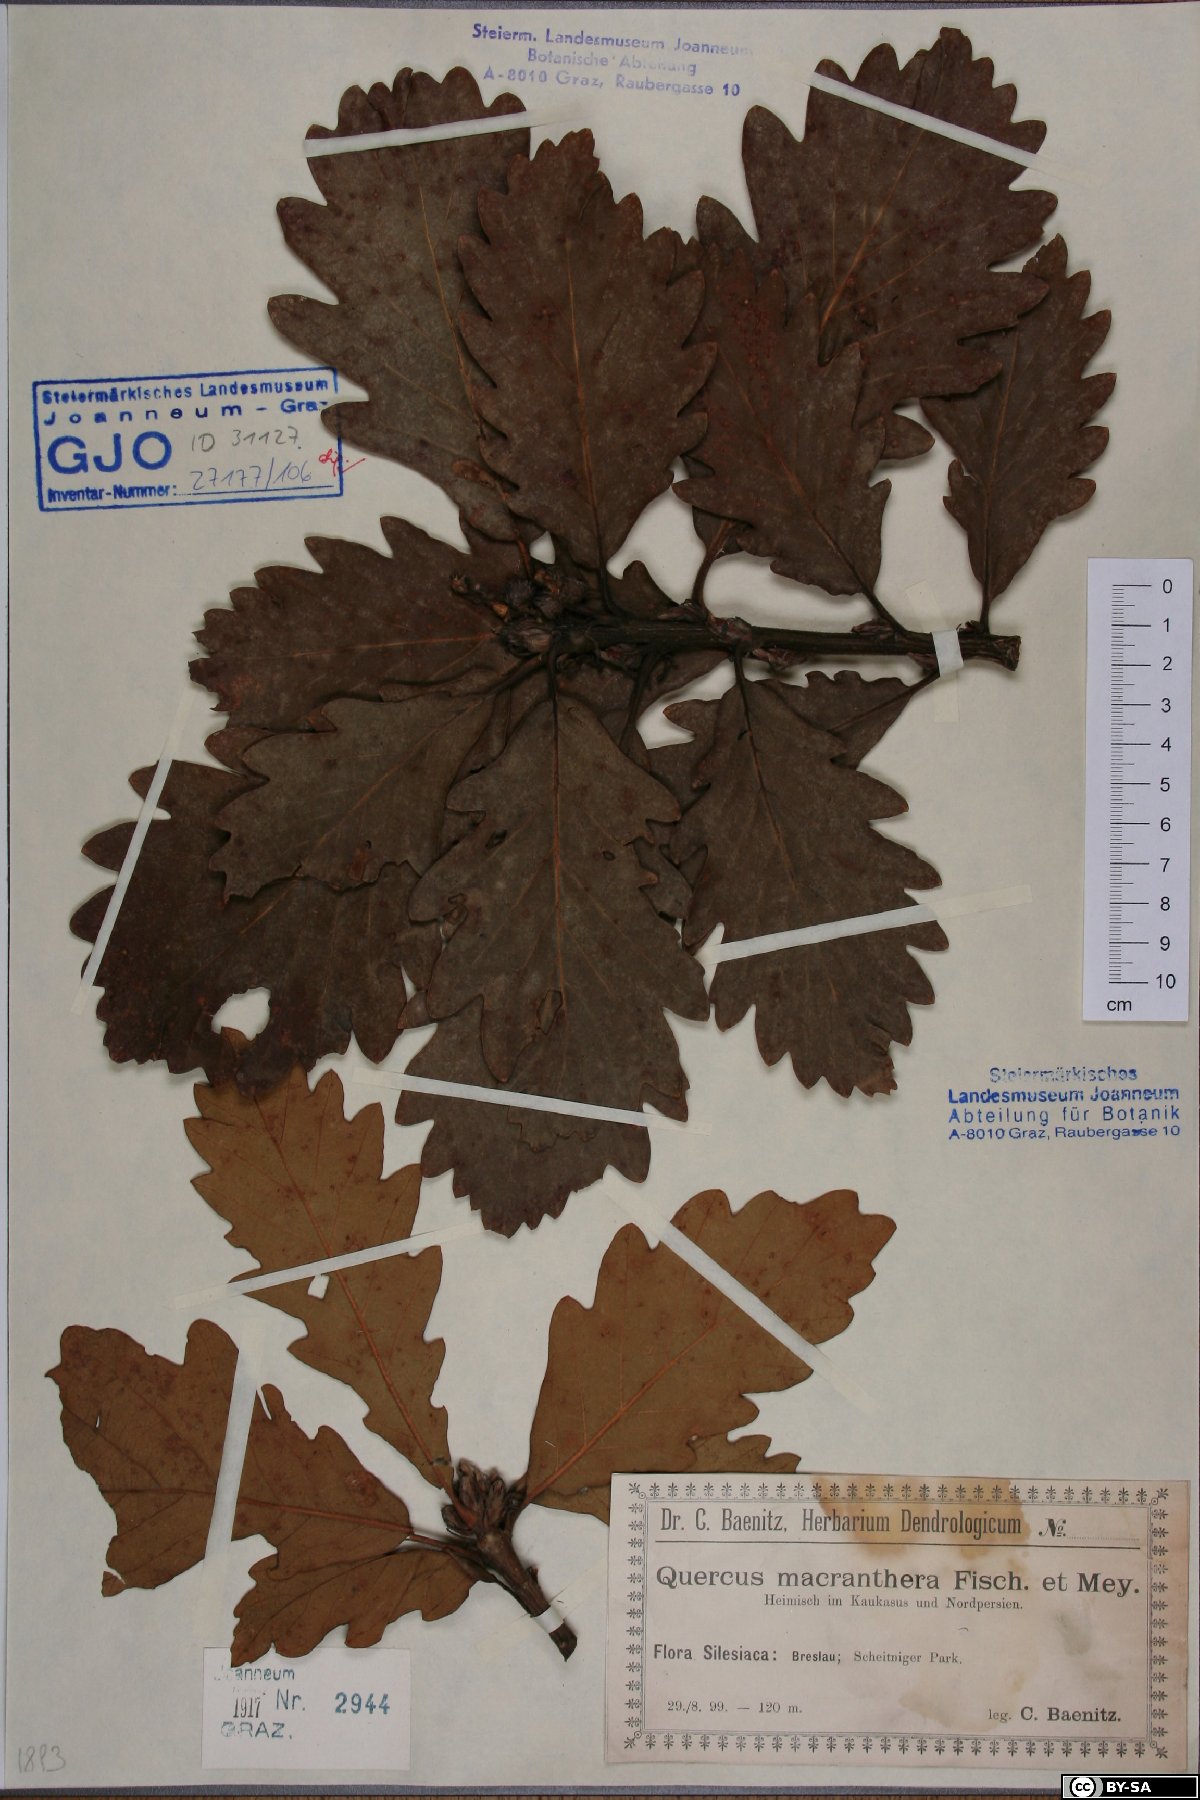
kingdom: Plantae
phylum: Tracheophyta
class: Magnoliopsida
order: Fagales
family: Fagaceae
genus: Quercus
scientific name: Quercus macranthera
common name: Caucasian oak
